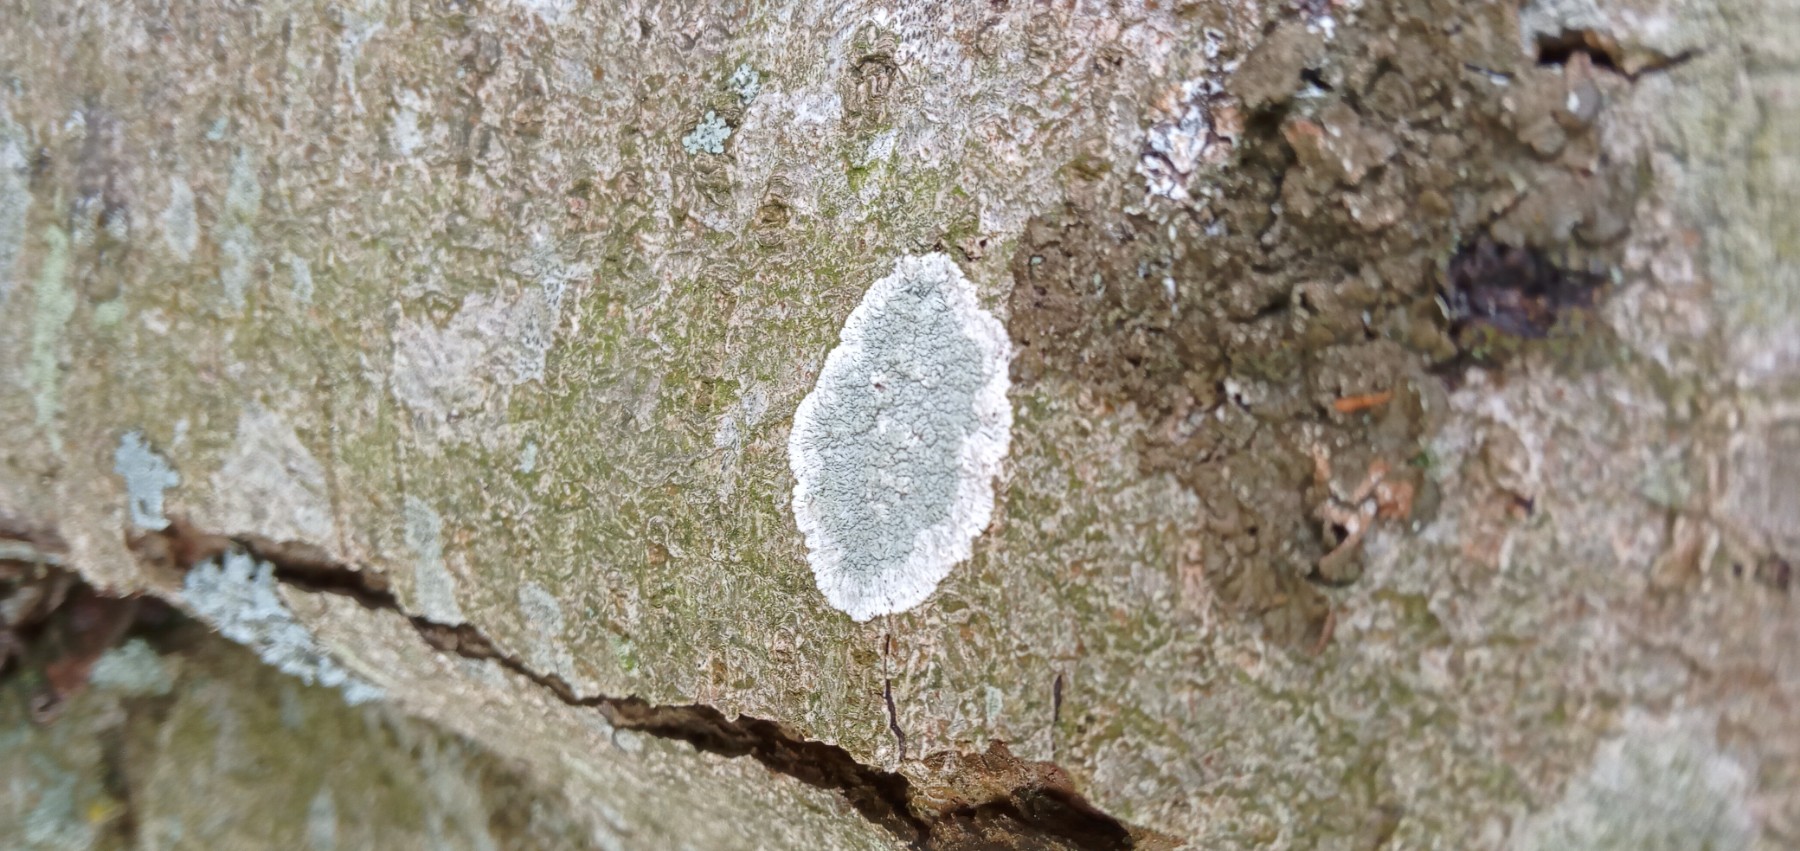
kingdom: Fungi
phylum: Ascomycota
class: Lecanoromycetes
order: Lecanorales
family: Haematommataceae
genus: Haematomma
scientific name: Haematomma ochroleucum
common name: gul trådkantlav
